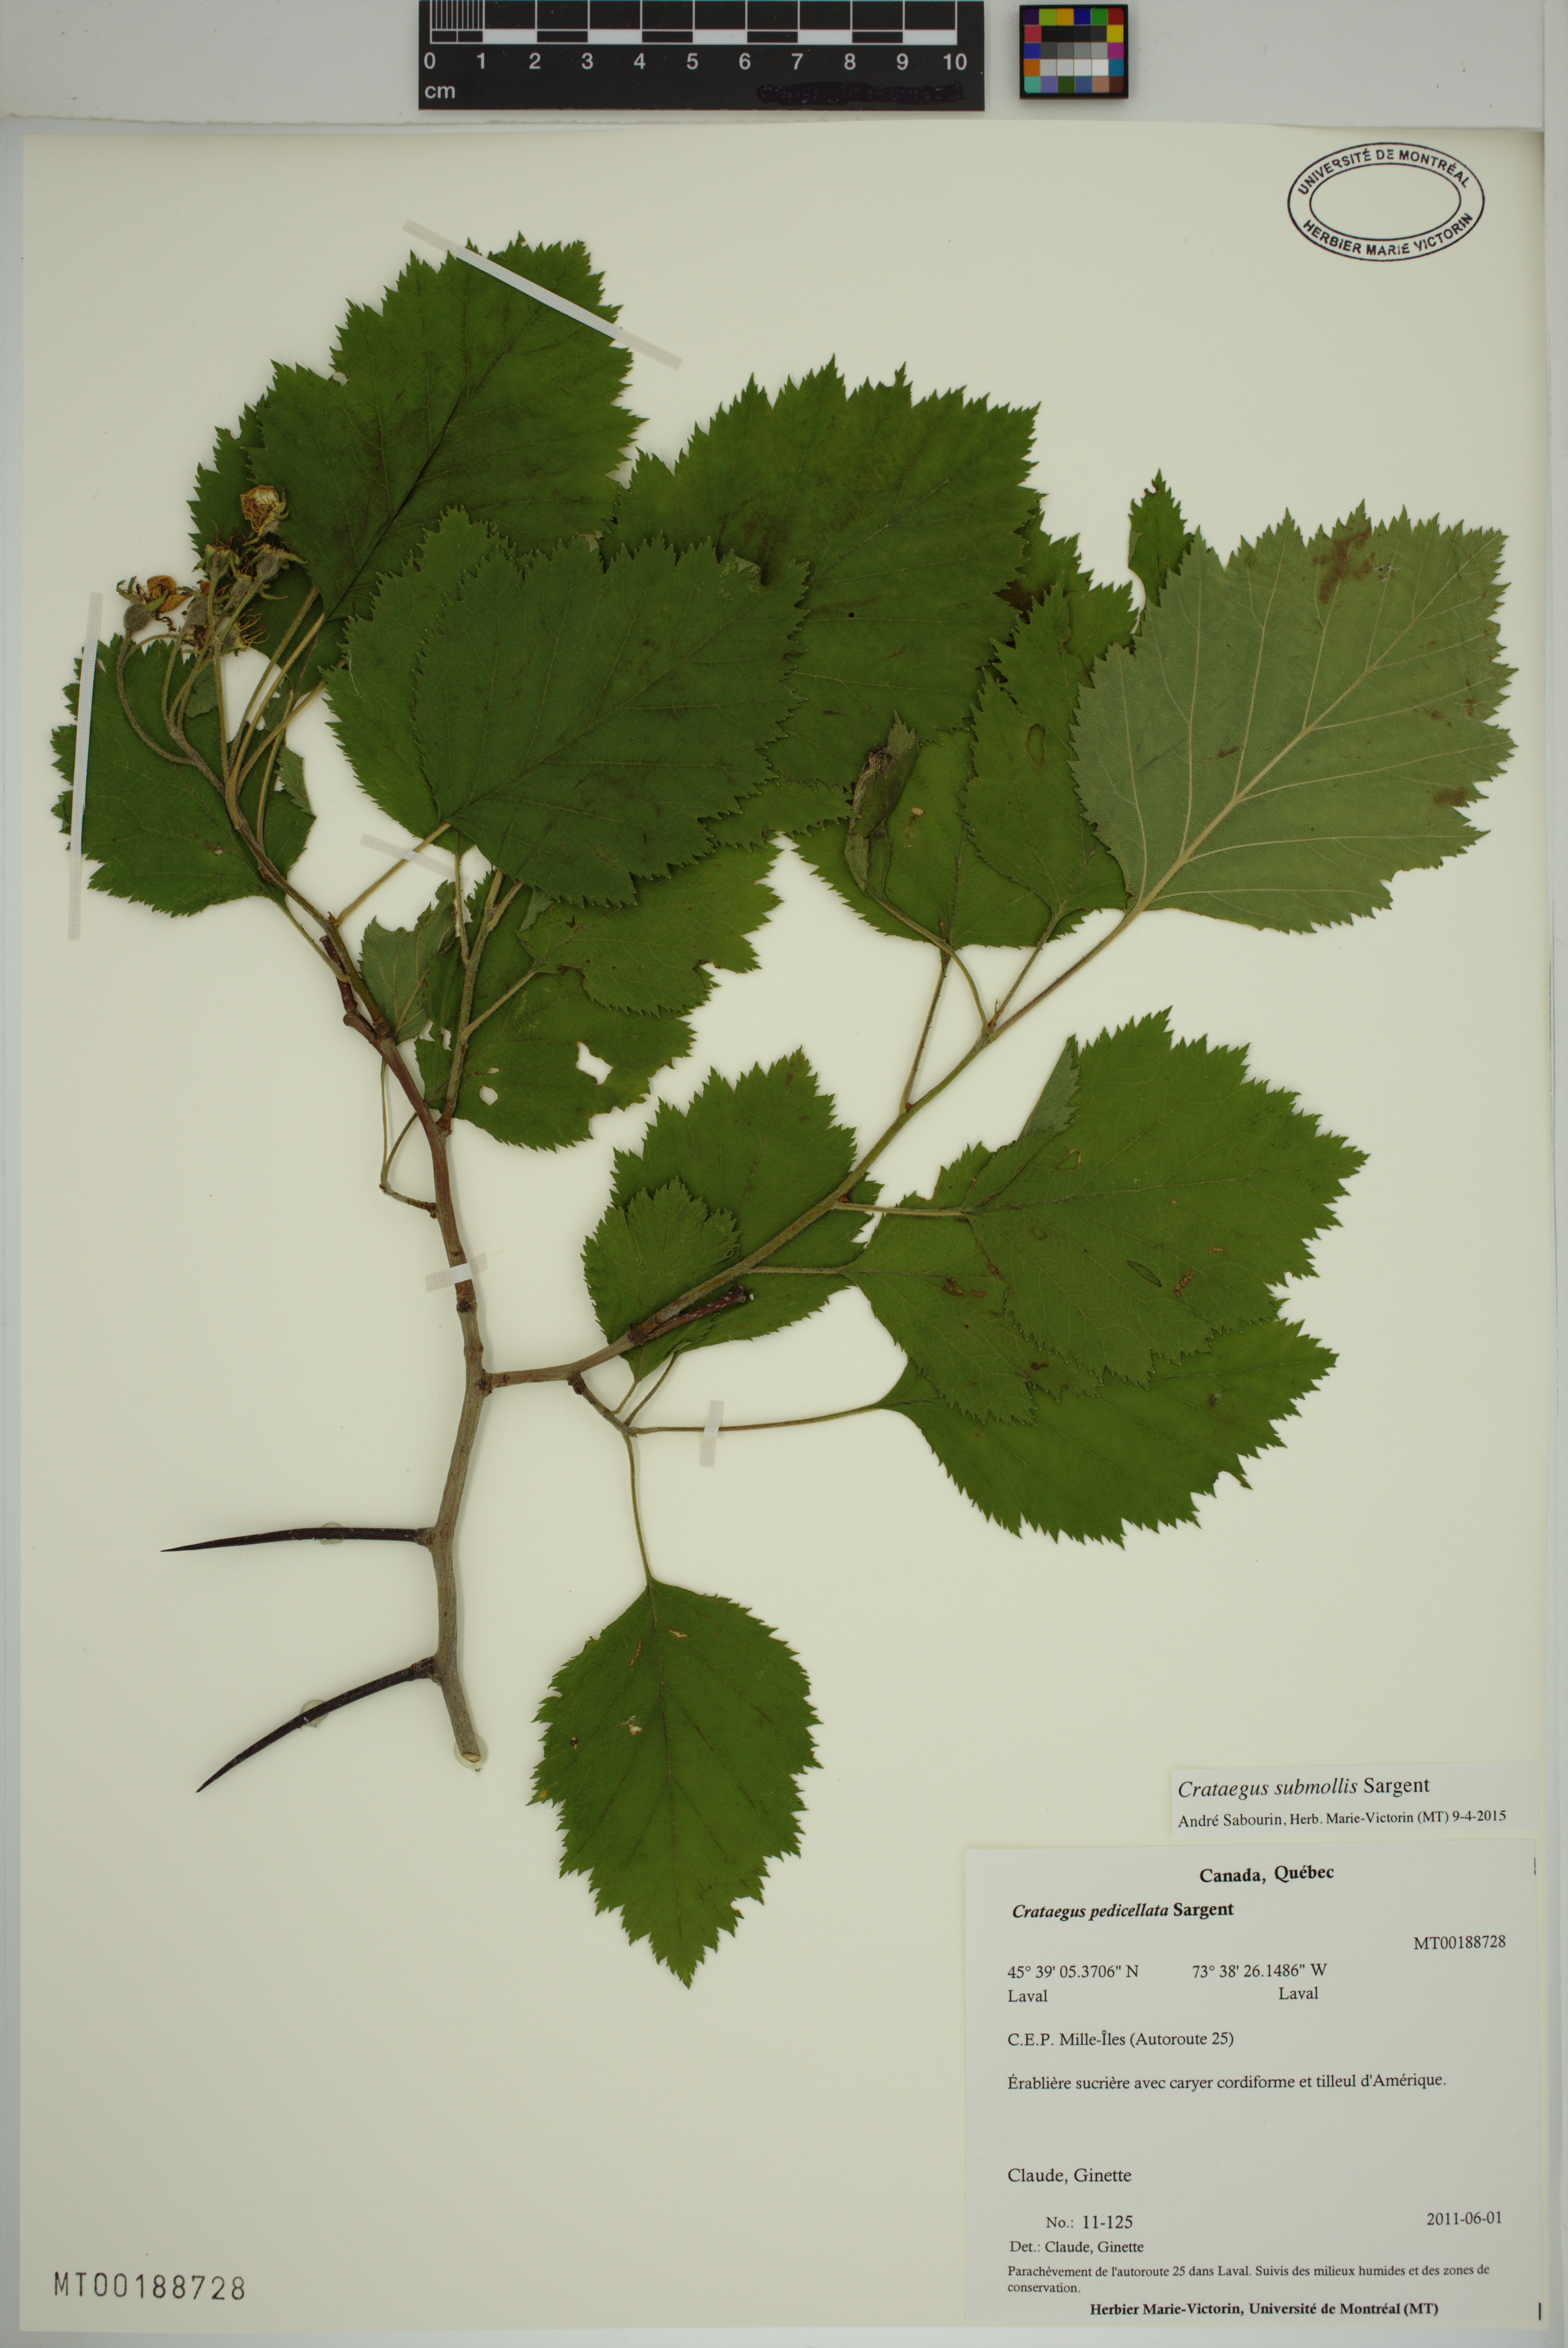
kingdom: Plantae
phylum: Tracheophyta
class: Magnoliopsida
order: Rosales
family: Rosaceae
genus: Crataegus
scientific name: Crataegus submollis
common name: Hairy cockspurthorn
